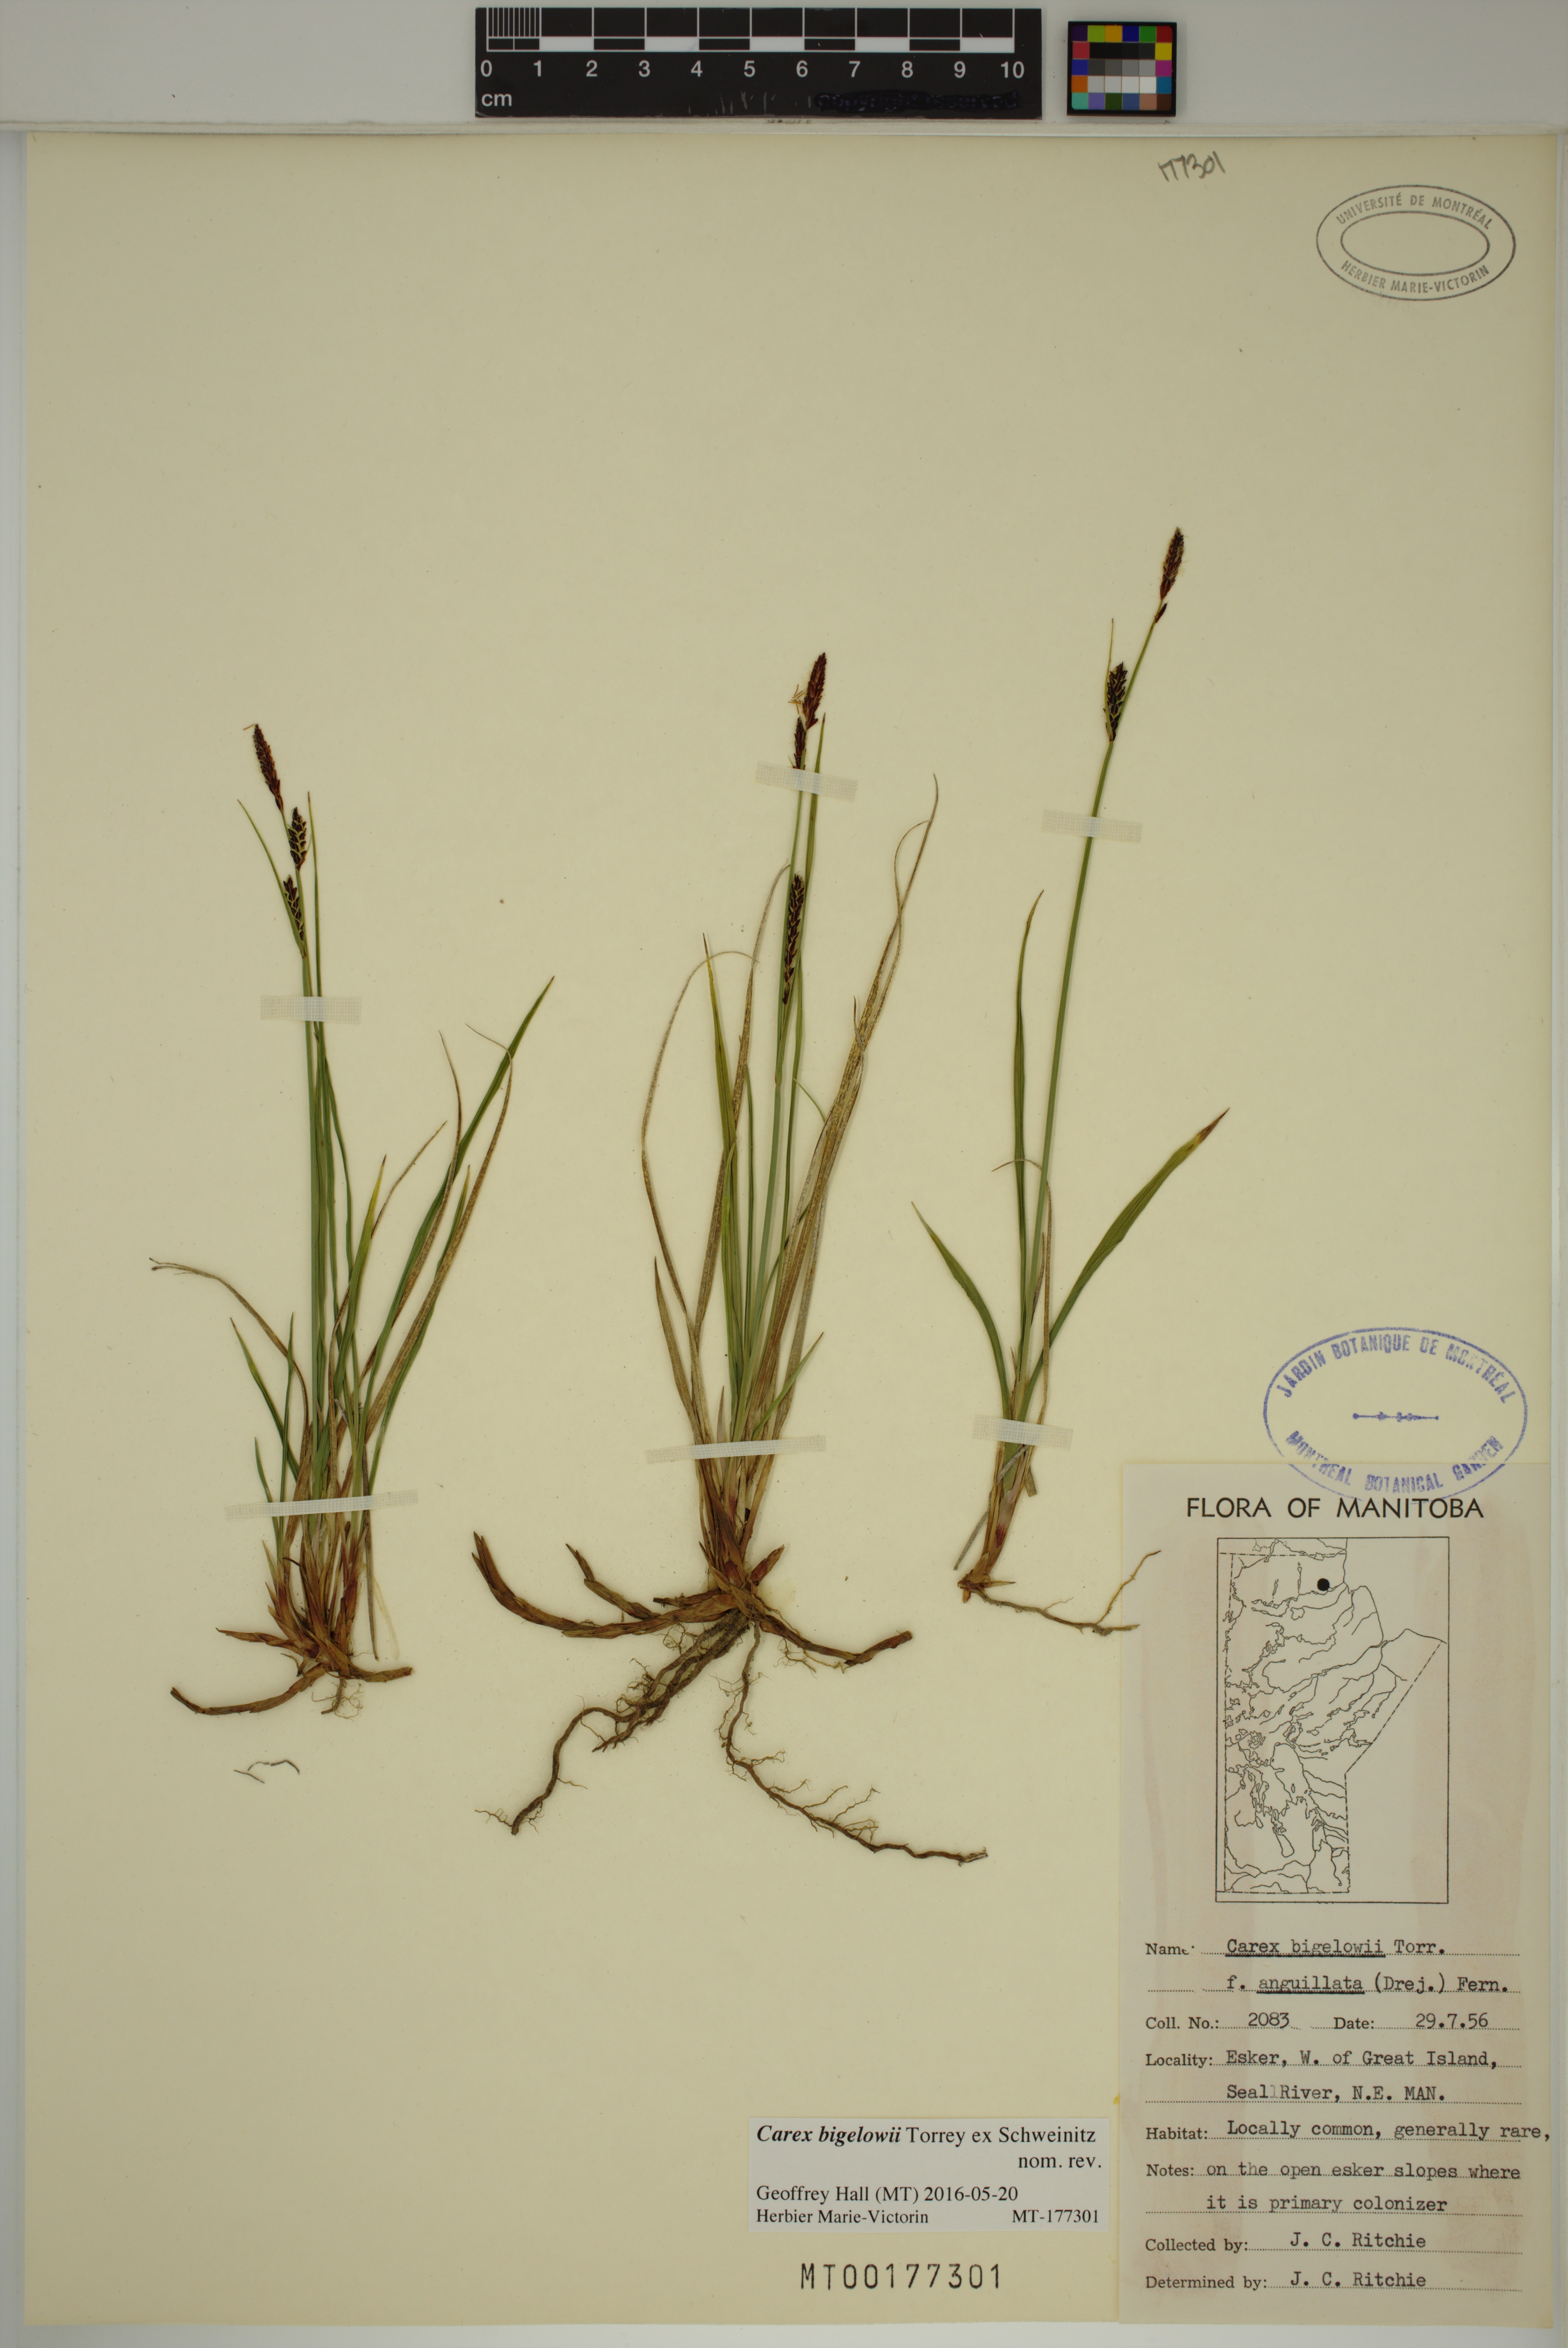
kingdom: Plantae
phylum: Tracheophyta
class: Liliopsida
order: Poales
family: Cyperaceae
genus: Carex
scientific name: Carex bigelowii
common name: Stiff sedge
